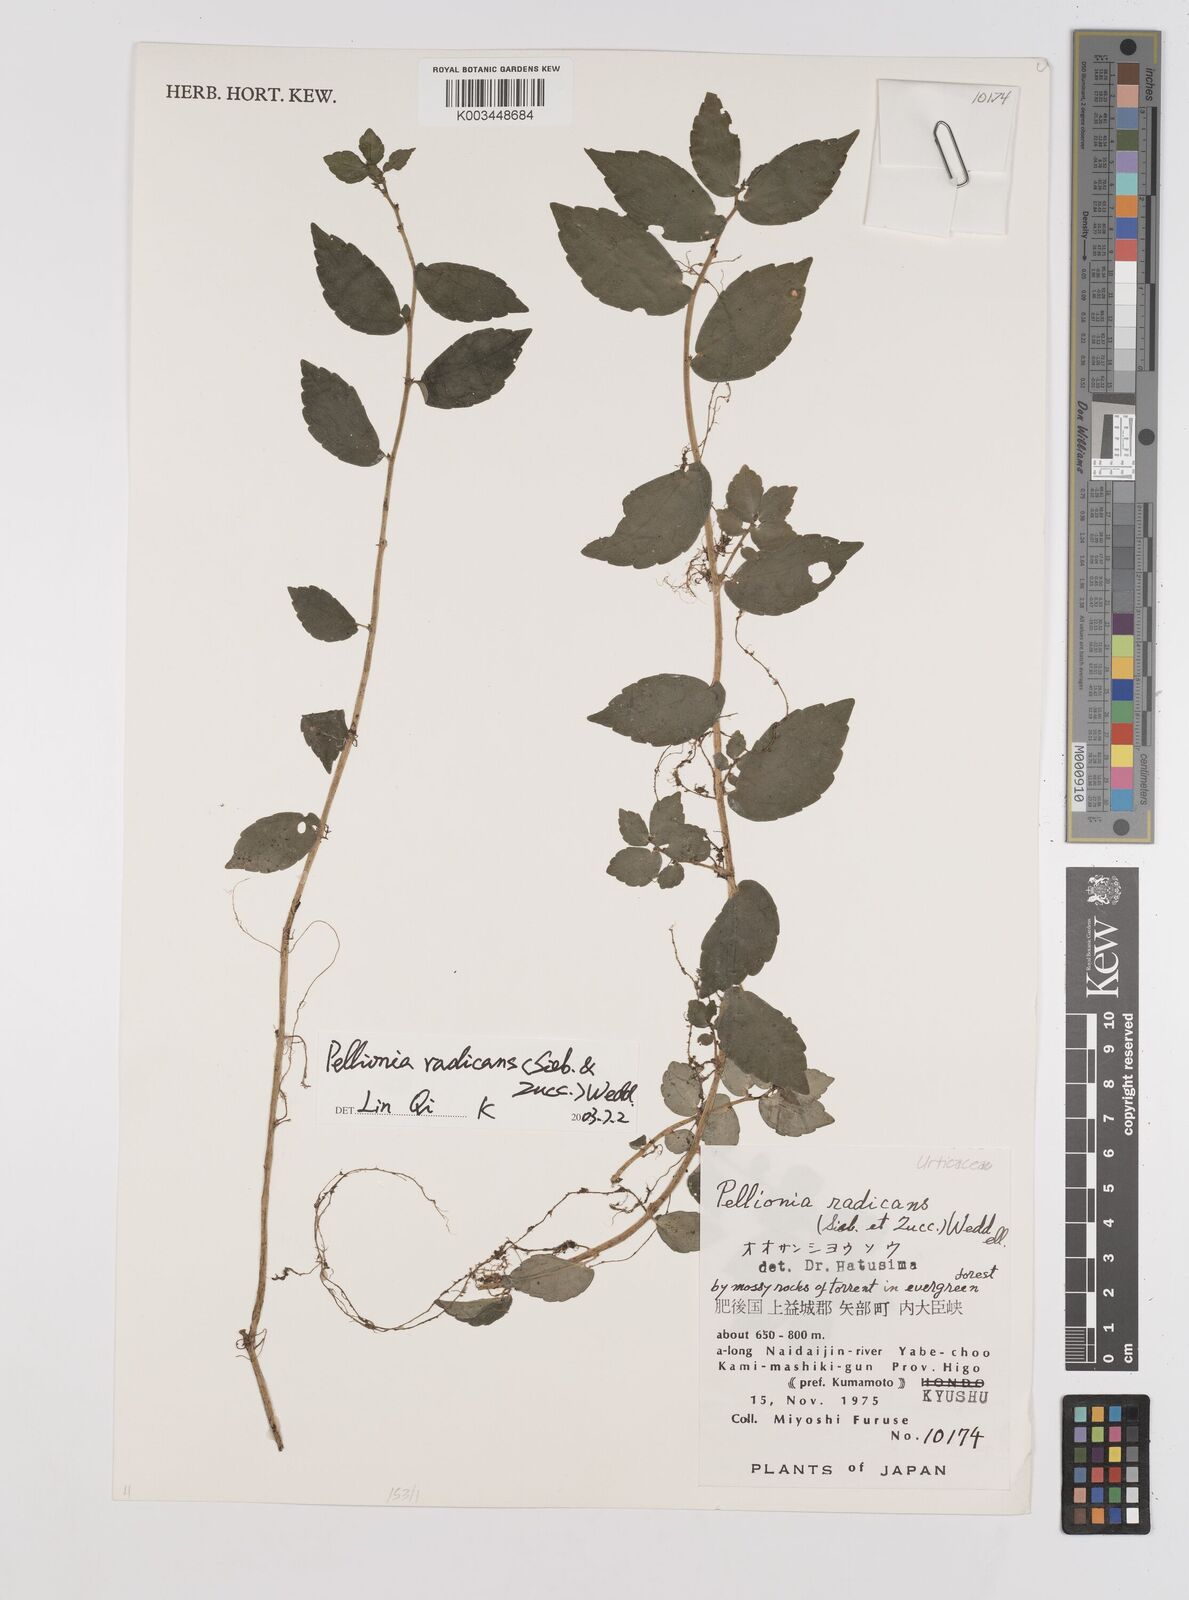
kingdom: Plantae
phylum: Tracheophyta
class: Magnoliopsida
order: Rosales
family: Urticaceae
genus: Elatostema
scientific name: Elatostema radicans
